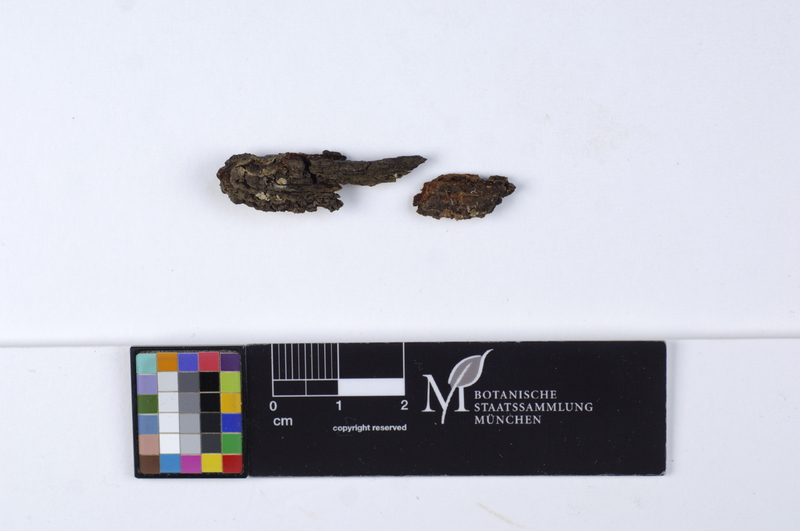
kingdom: Plantae
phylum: Tracheophyta
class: Magnoliopsida
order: Fagales
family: Fagaceae
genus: Quercus
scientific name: Quercus robur
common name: Pedunculate oak
